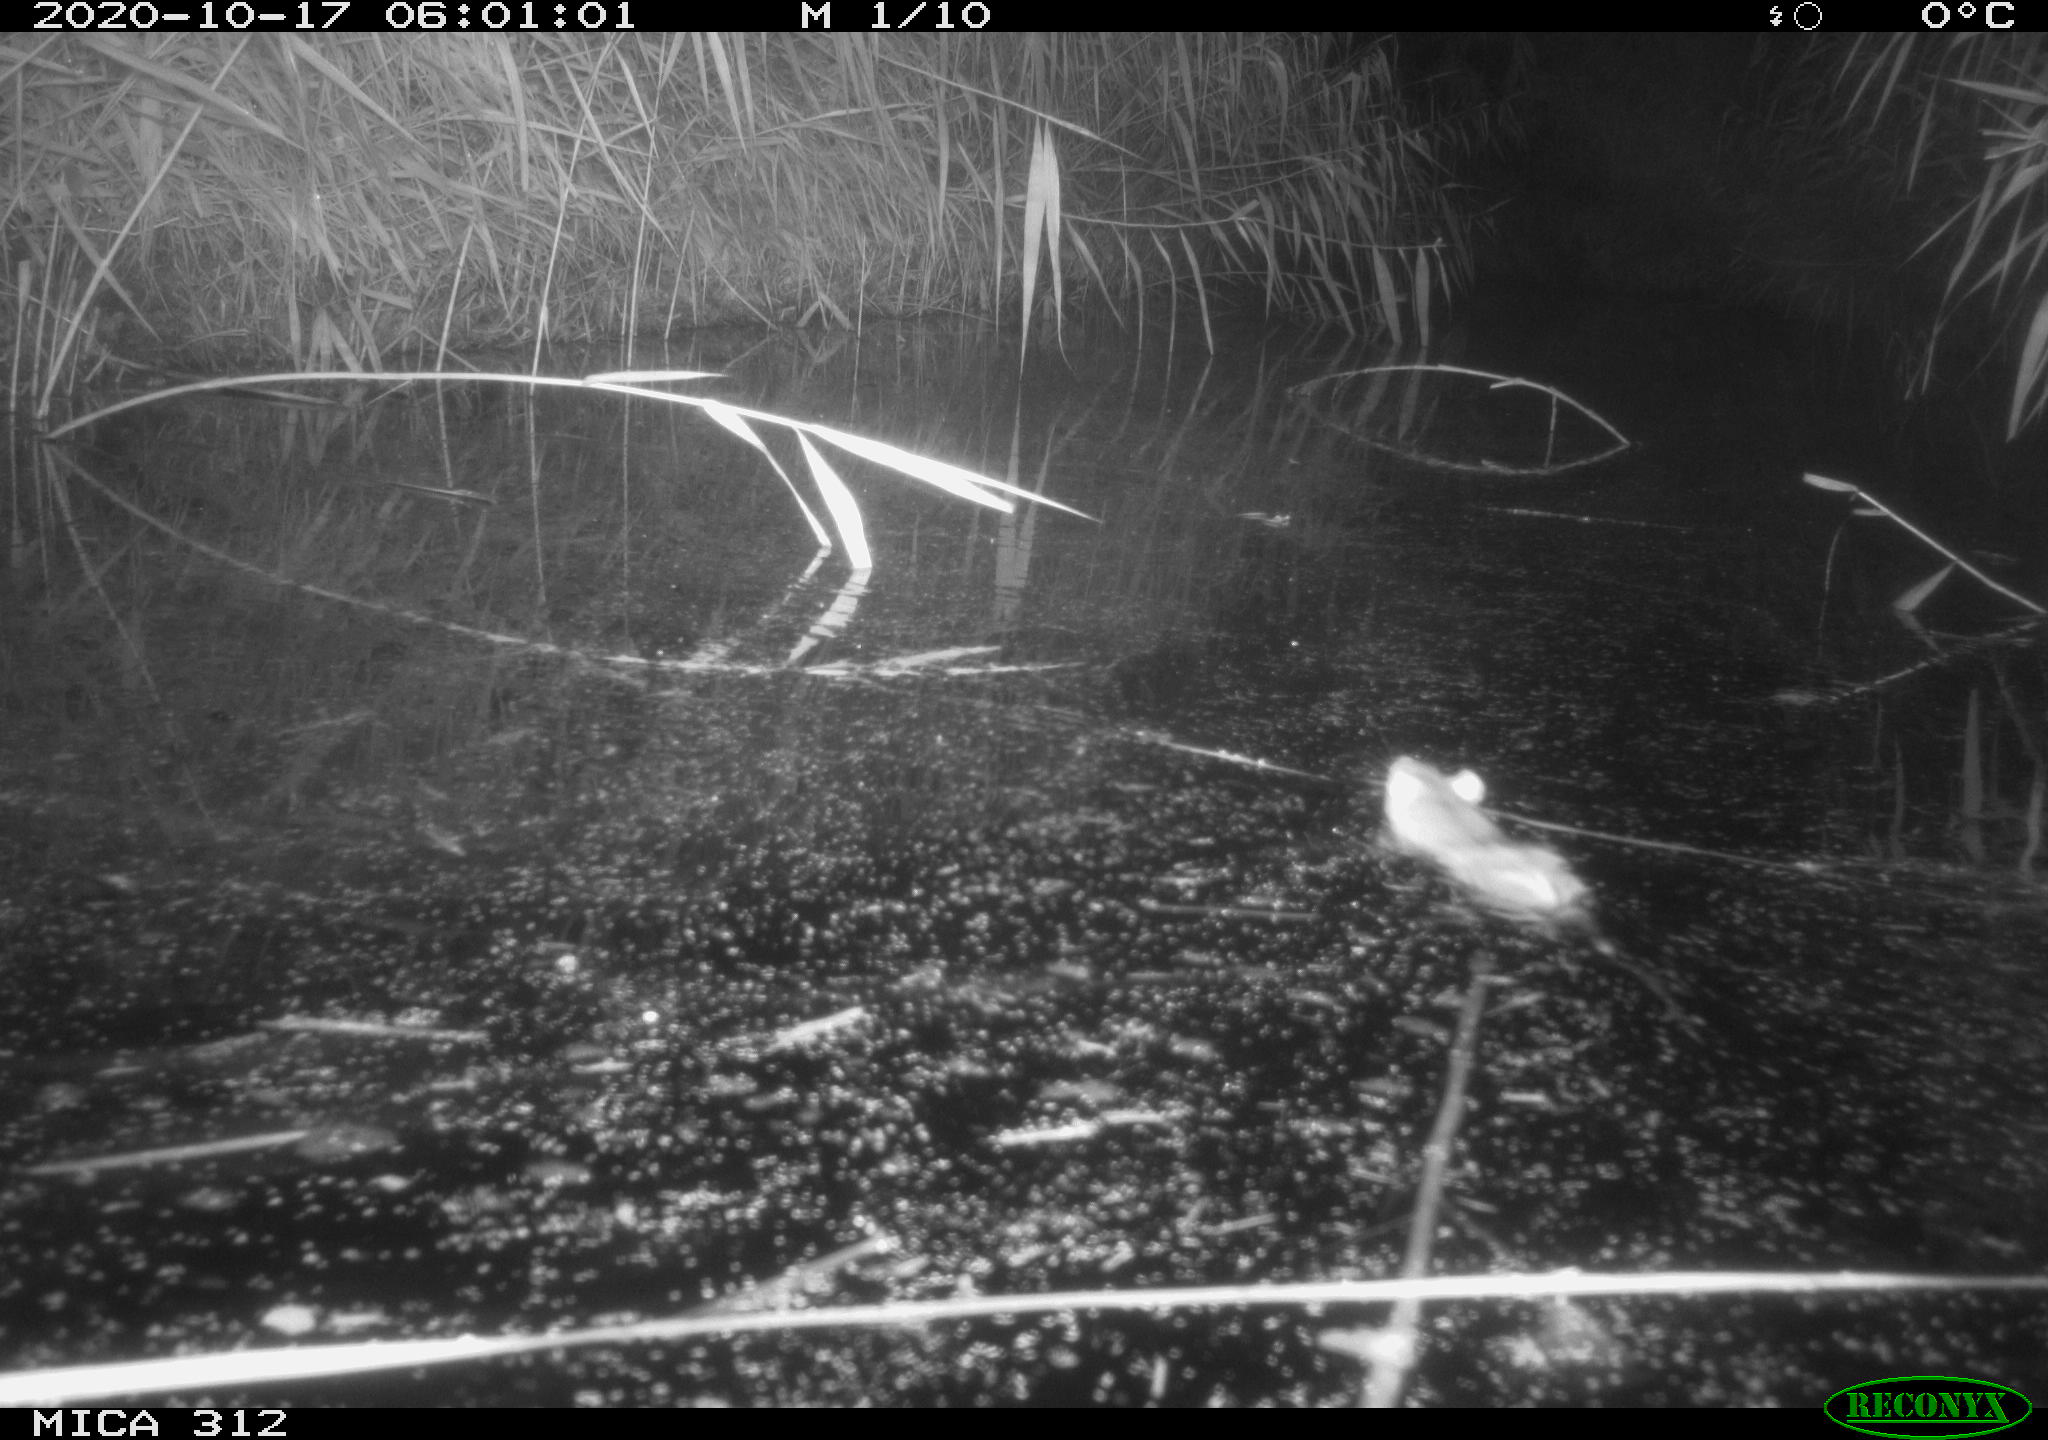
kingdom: Animalia
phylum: Chordata
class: Mammalia
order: Rodentia
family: Muridae
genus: Rattus
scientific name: Rattus norvegicus
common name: Brown rat
